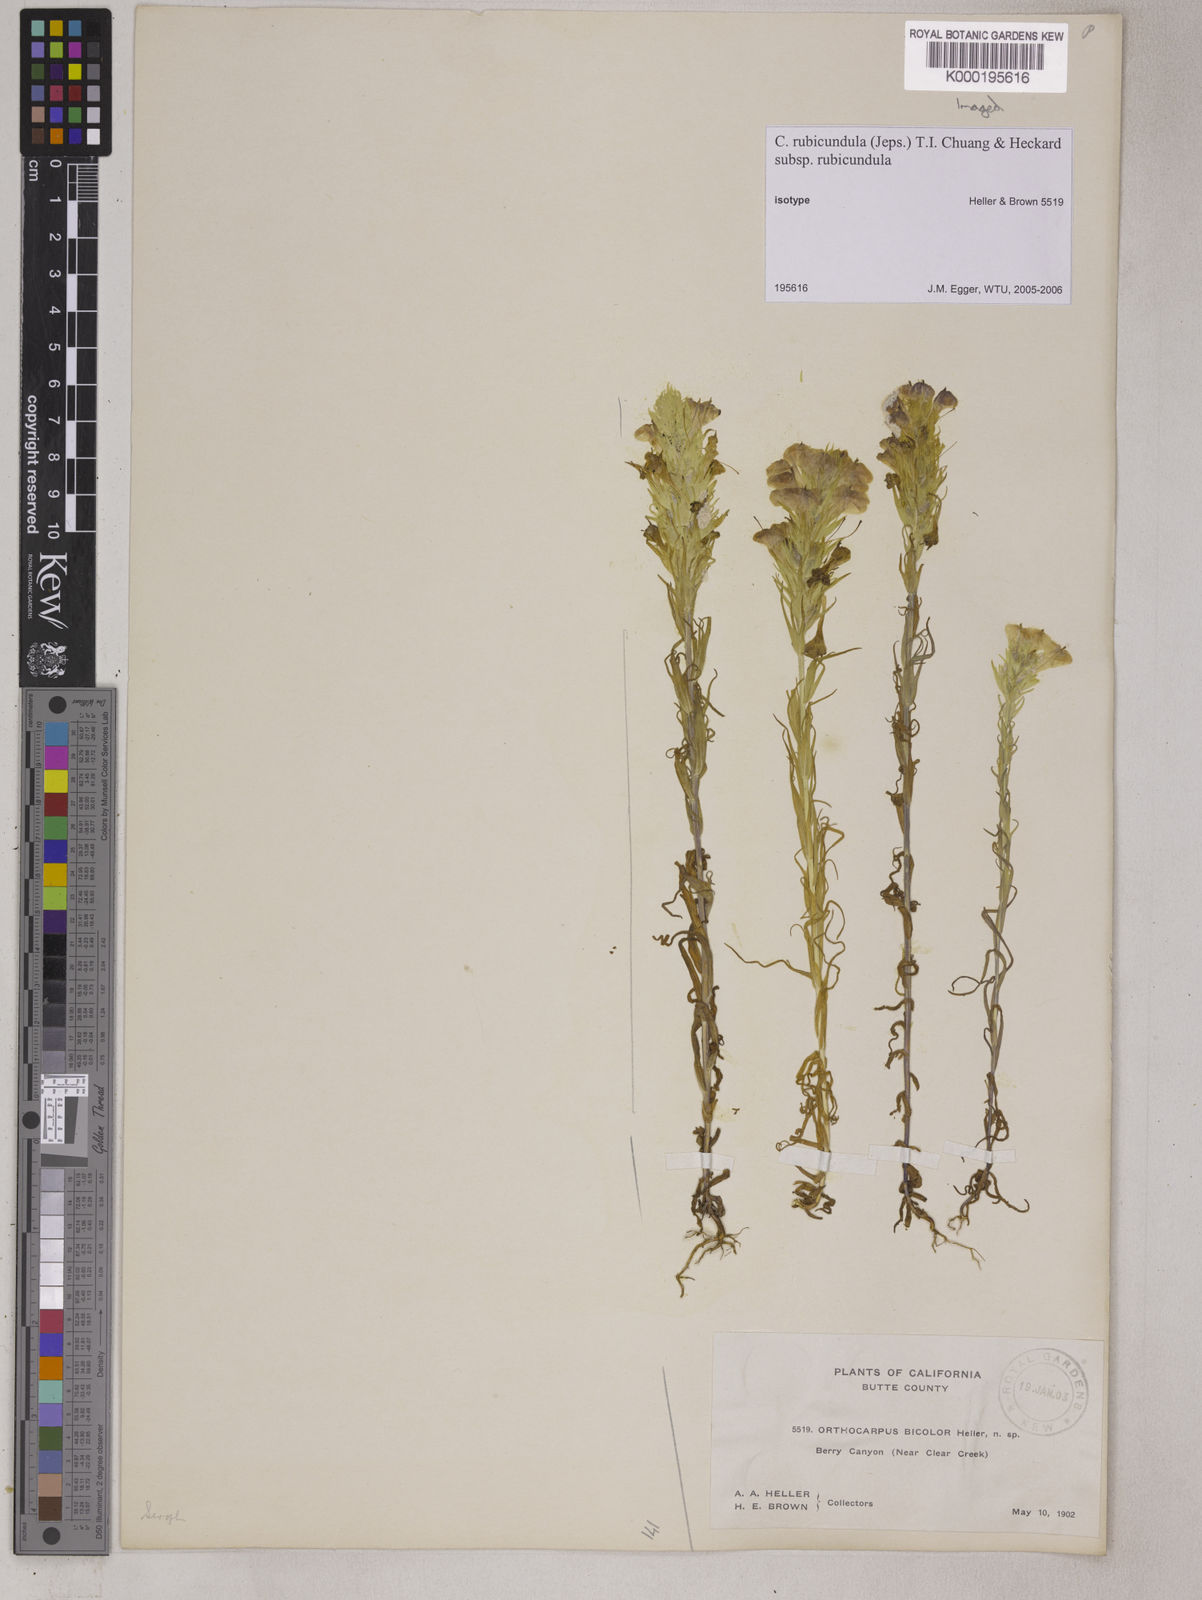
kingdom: Plantae
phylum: Tracheophyta
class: Magnoliopsida
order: Lamiales
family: Orobanchaceae
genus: Castilleja
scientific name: Castilleja rubicundula
